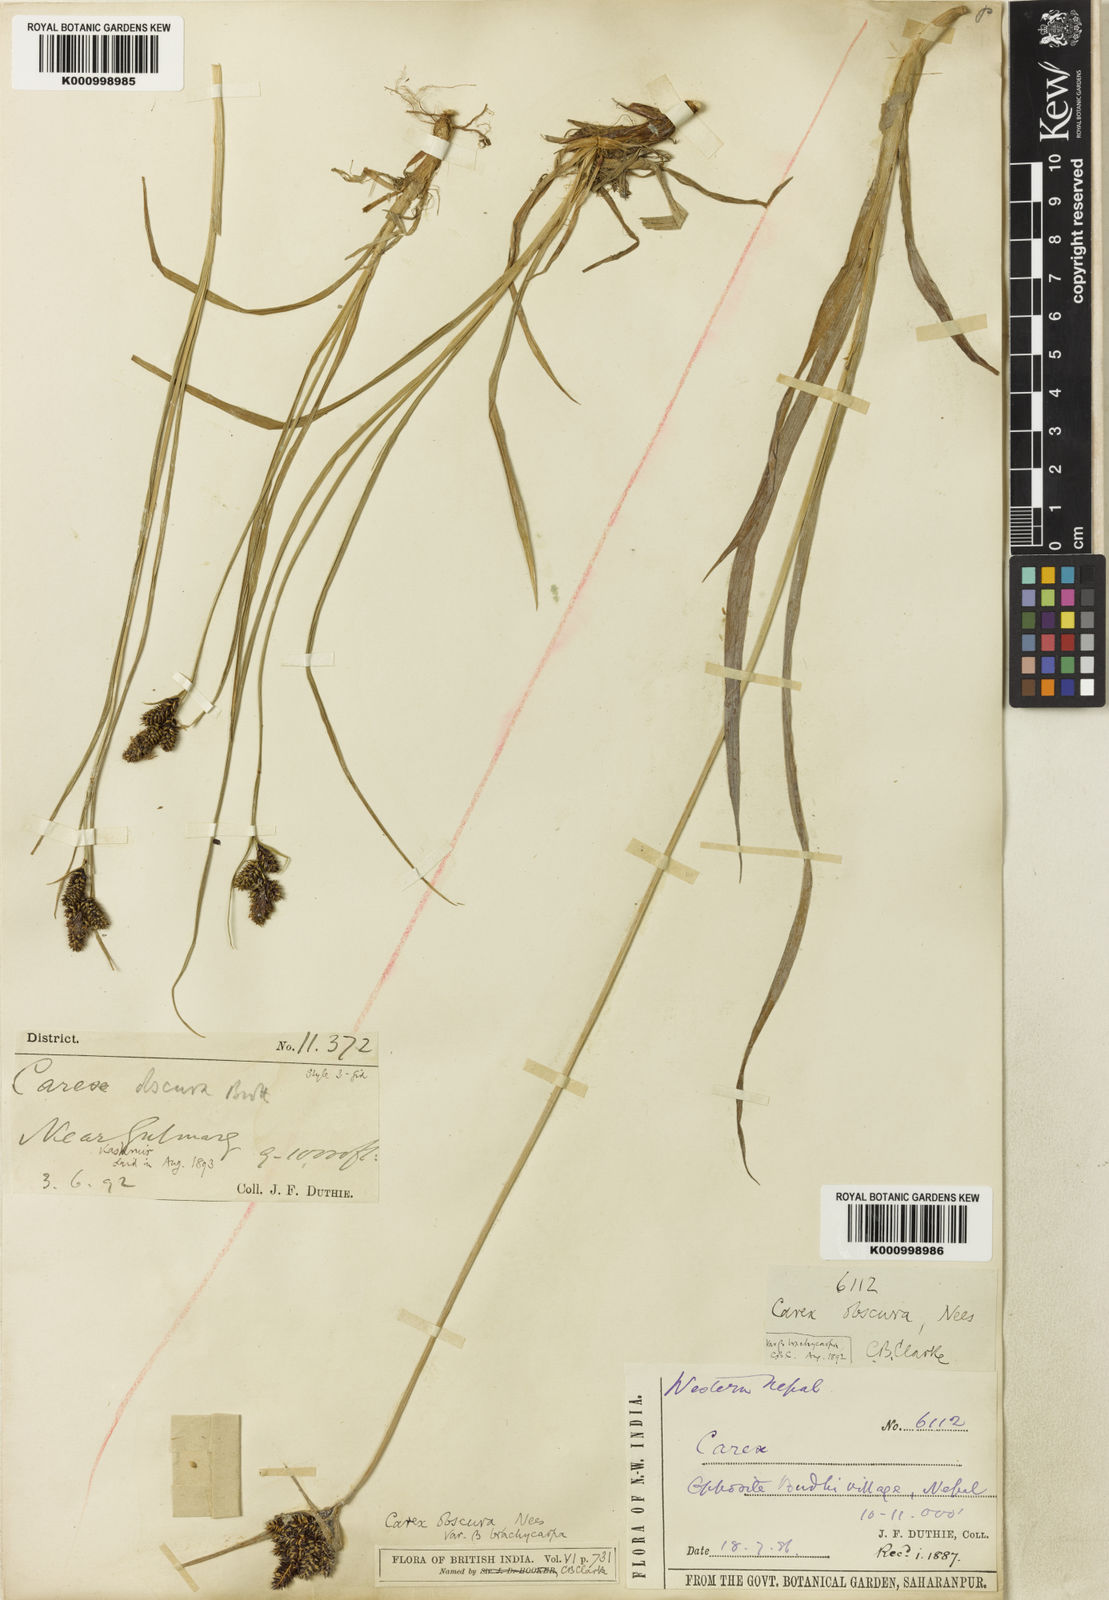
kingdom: Plantae
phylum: Tracheophyta
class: Liliopsida
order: Poales
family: Cyperaceae
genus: Carex
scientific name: Carex obscura
